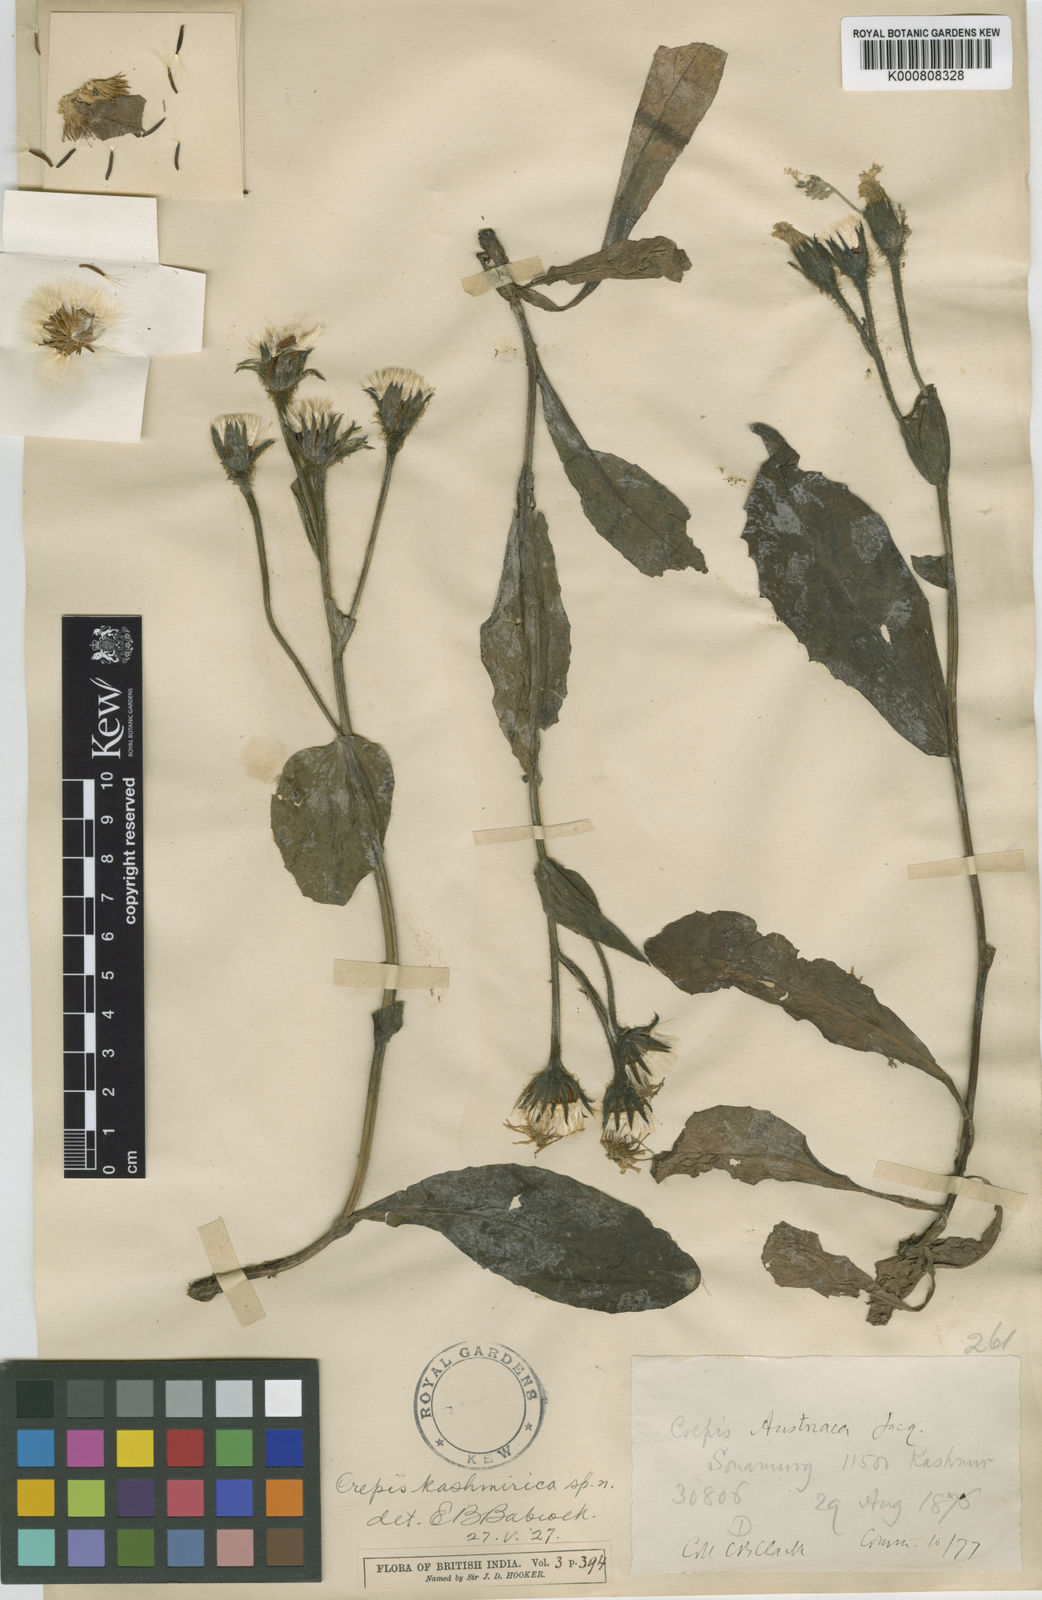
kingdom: Plantae
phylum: Tracheophyta
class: Magnoliopsida
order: Asterales
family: Asteraceae
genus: Crepis
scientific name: Crepis kashmirica
